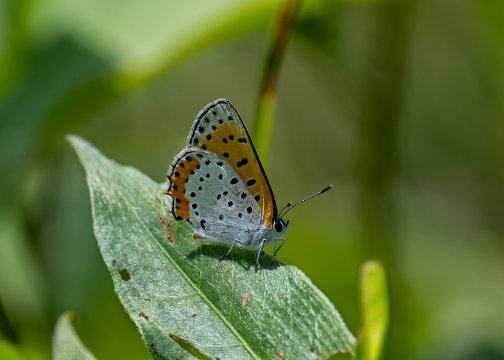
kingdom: Animalia
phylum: Arthropoda
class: Insecta
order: Lepidoptera
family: Sesiidae
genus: Sesia
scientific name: Sesia Lycaena hyllus
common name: Bronze Copper
